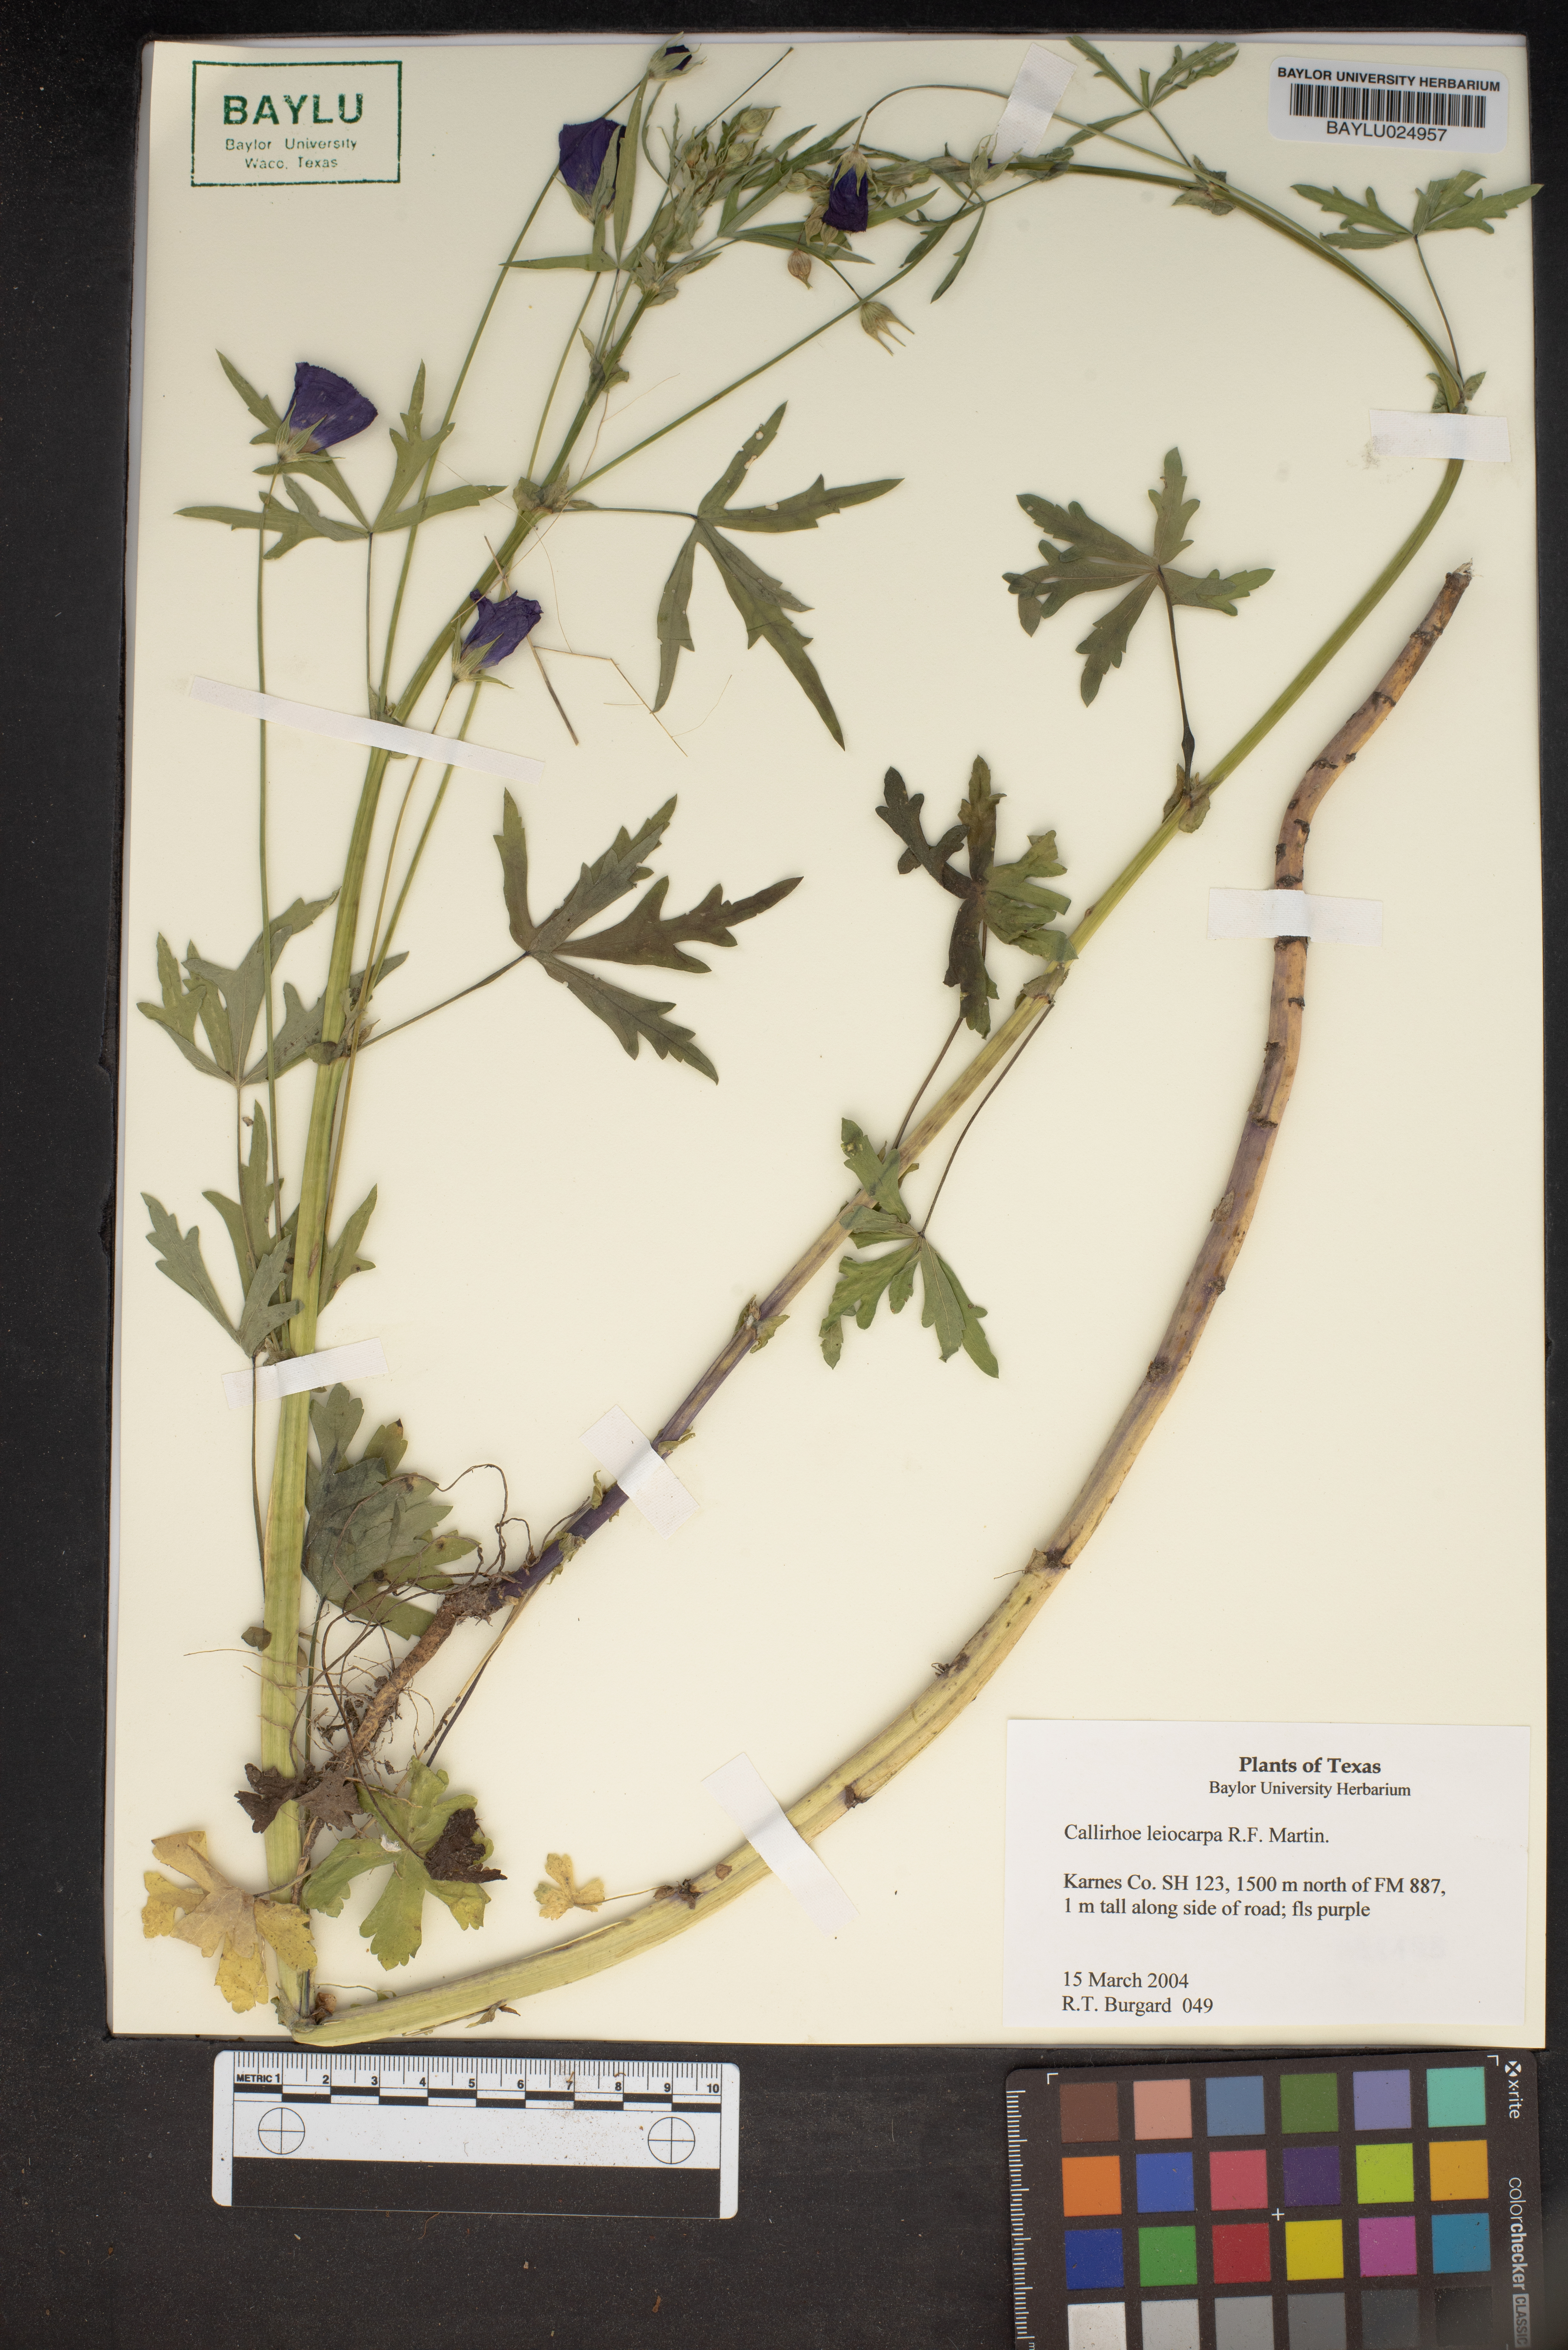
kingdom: Plantae
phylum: Tracheophyta
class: Magnoliopsida
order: Malvales
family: Malvaceae
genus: Callirhoe
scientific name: Callirhoe leiocarpa
